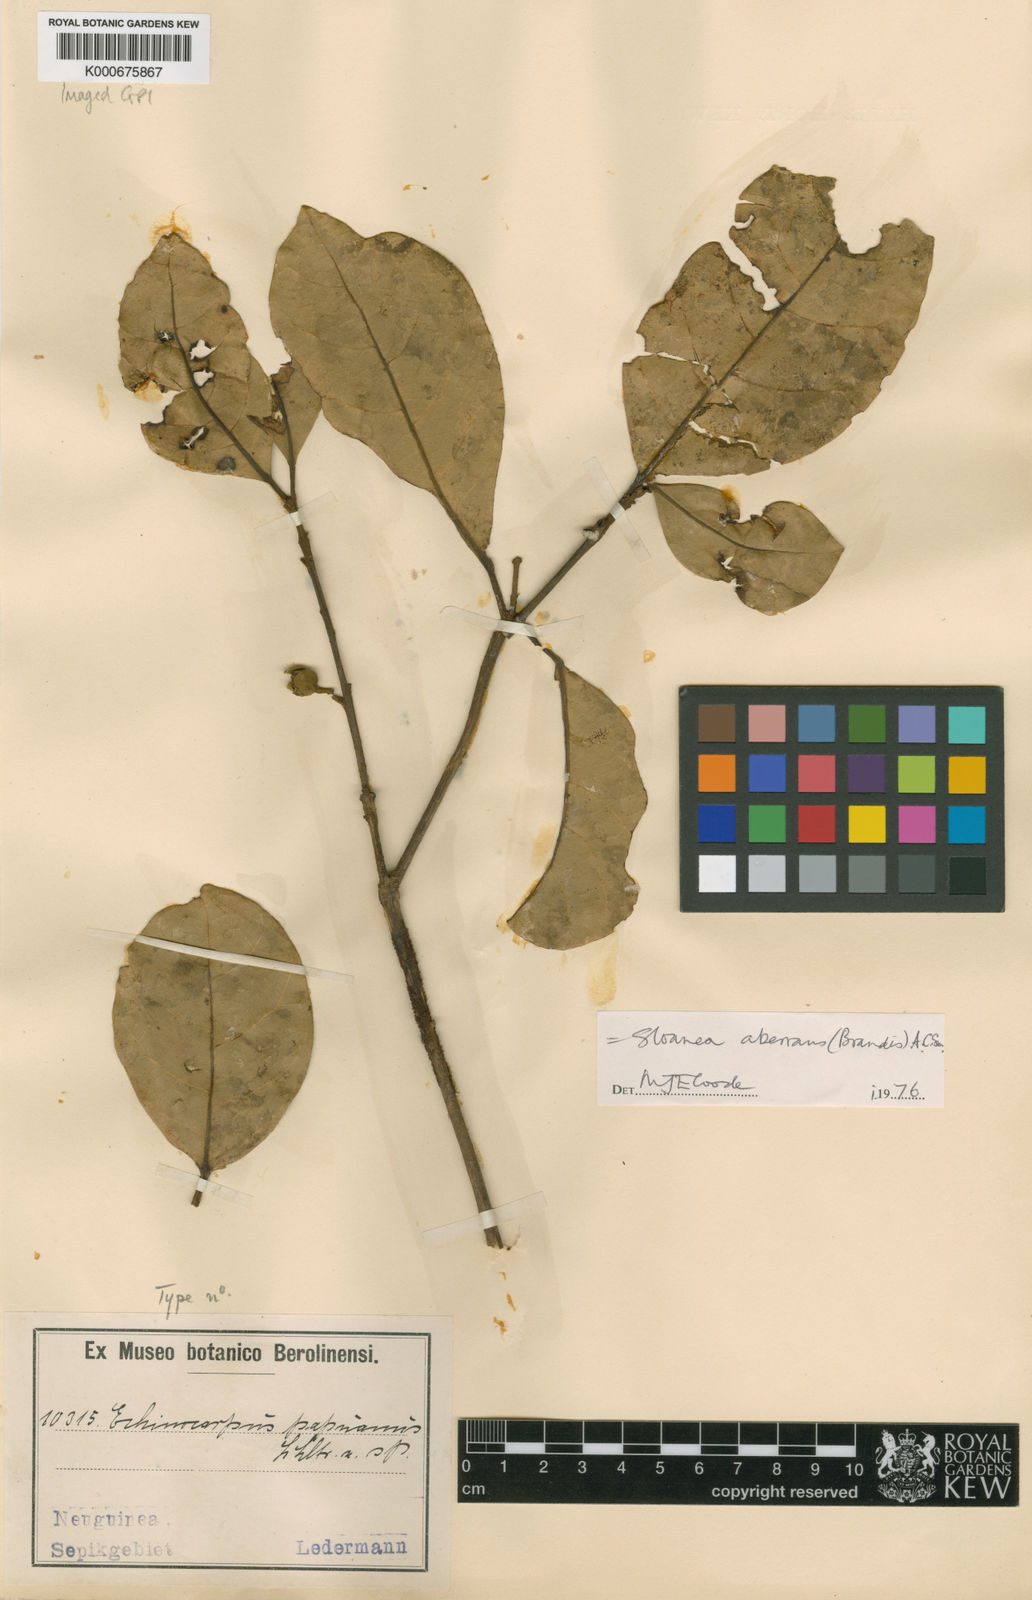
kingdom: Plantae
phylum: Tracheophyta
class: Magnoliopsida
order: Oxalidales
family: Elaeocarpaceae
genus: Sloanea
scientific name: Sloanea aberrans
